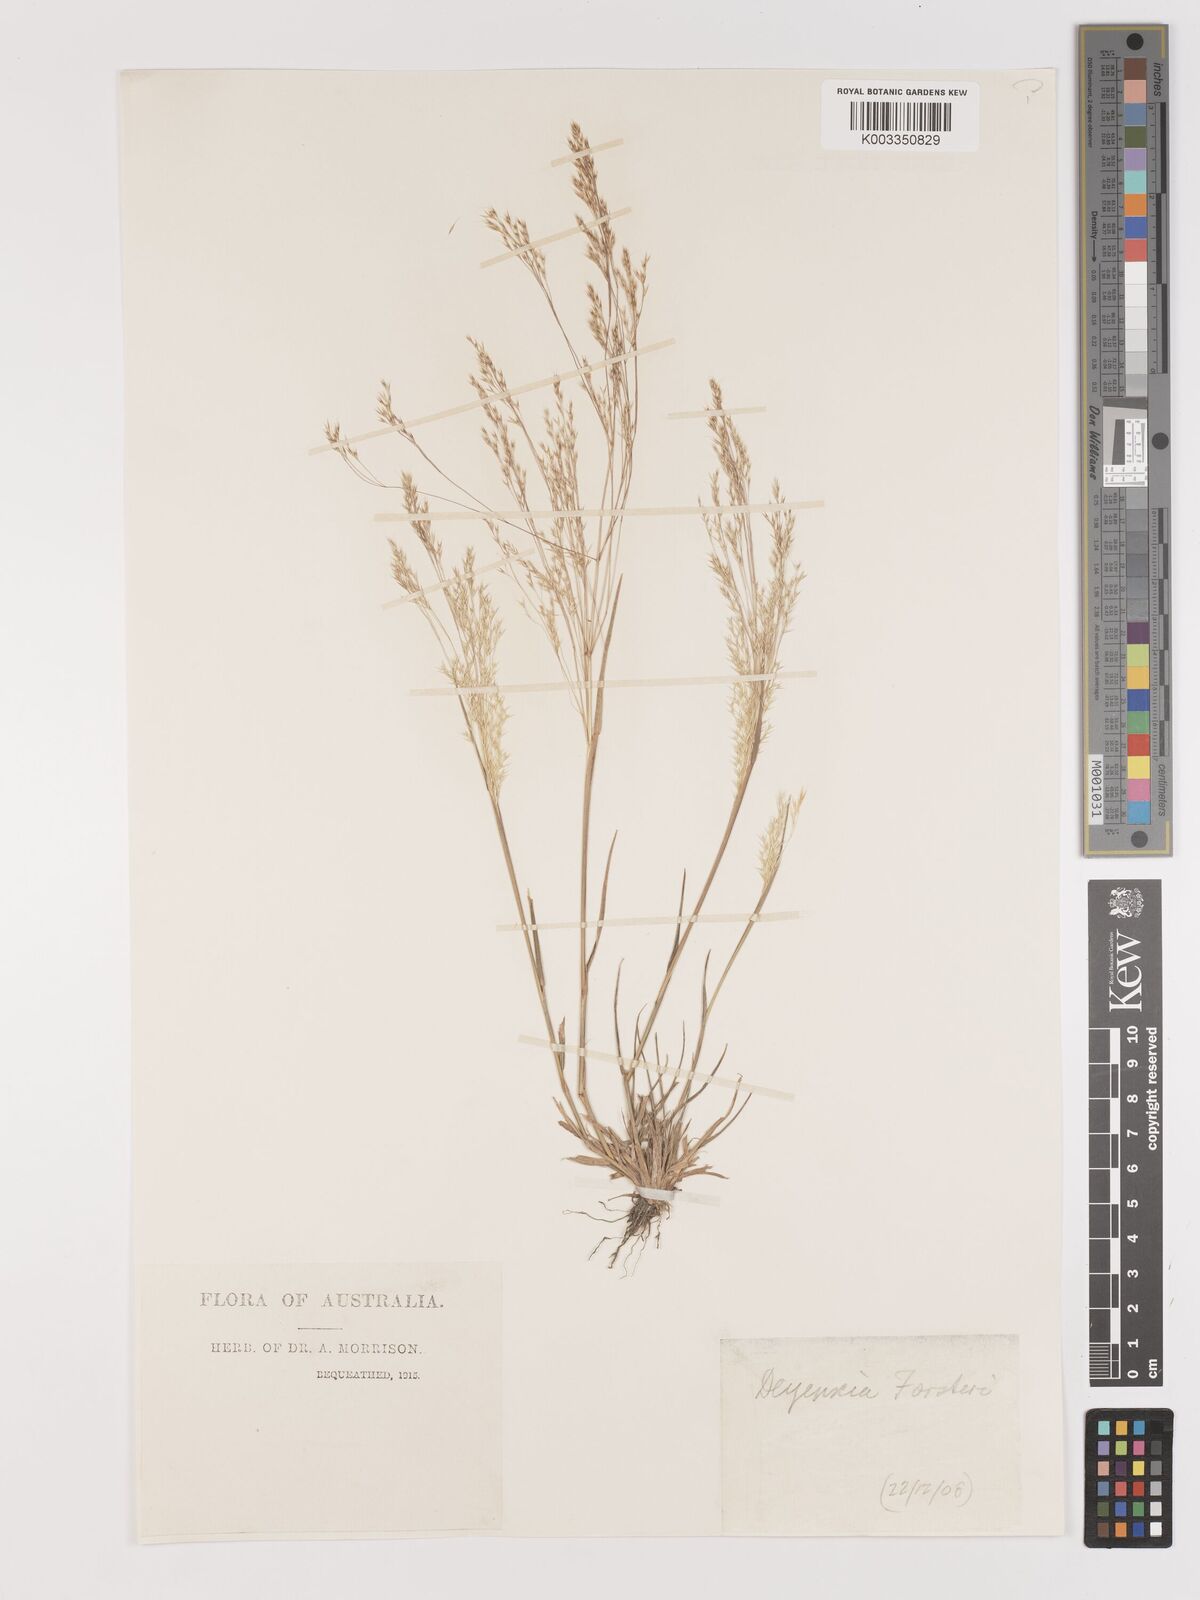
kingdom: Plantae
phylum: Tracheophyta
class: Liliopsida
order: Poales
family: Poaceae
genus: Lachnagrostis
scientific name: Lachnagrostis filiformis
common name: Bentgrass
